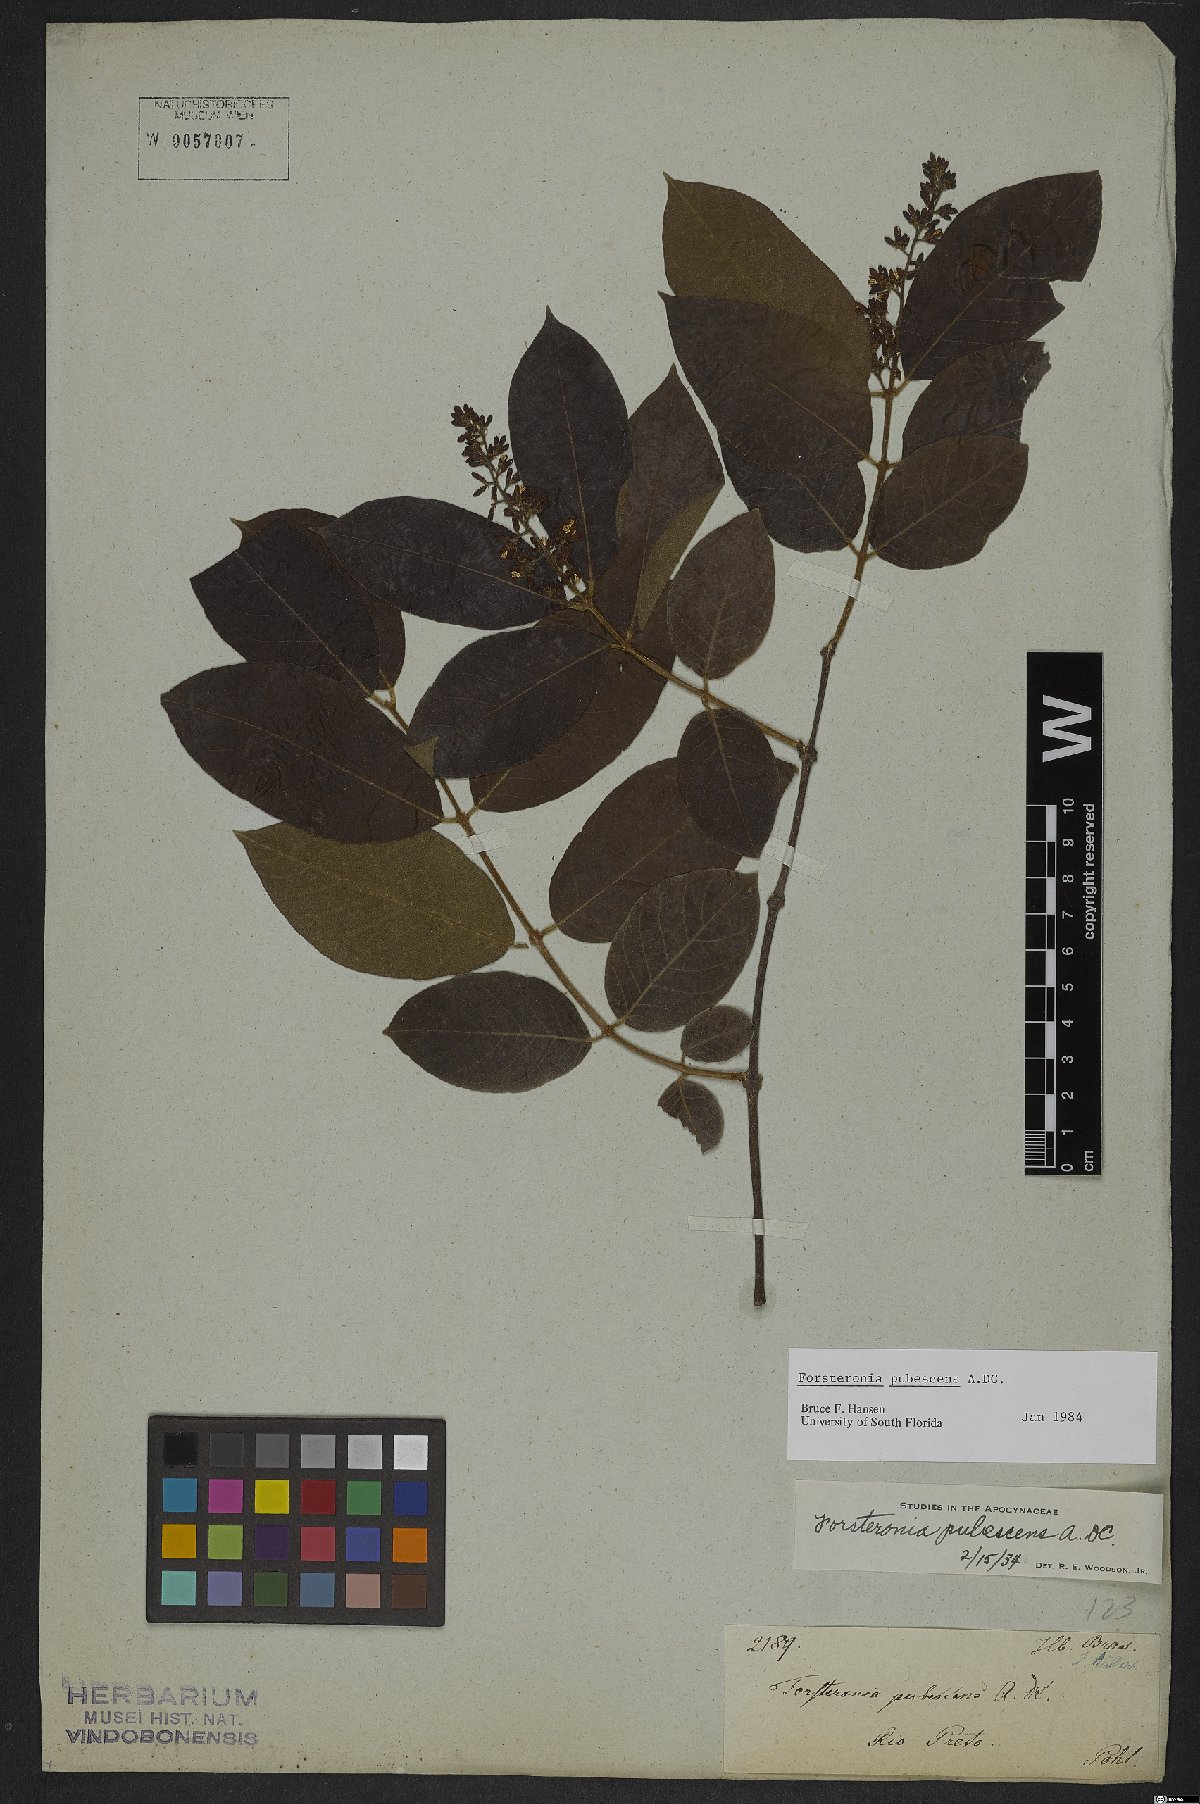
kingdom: Plantae
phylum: Tracheophyta
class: Magnoliopsida
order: Gentianales
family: Apocynaceae
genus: Forsteronia
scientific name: Forsteronia pubescens
